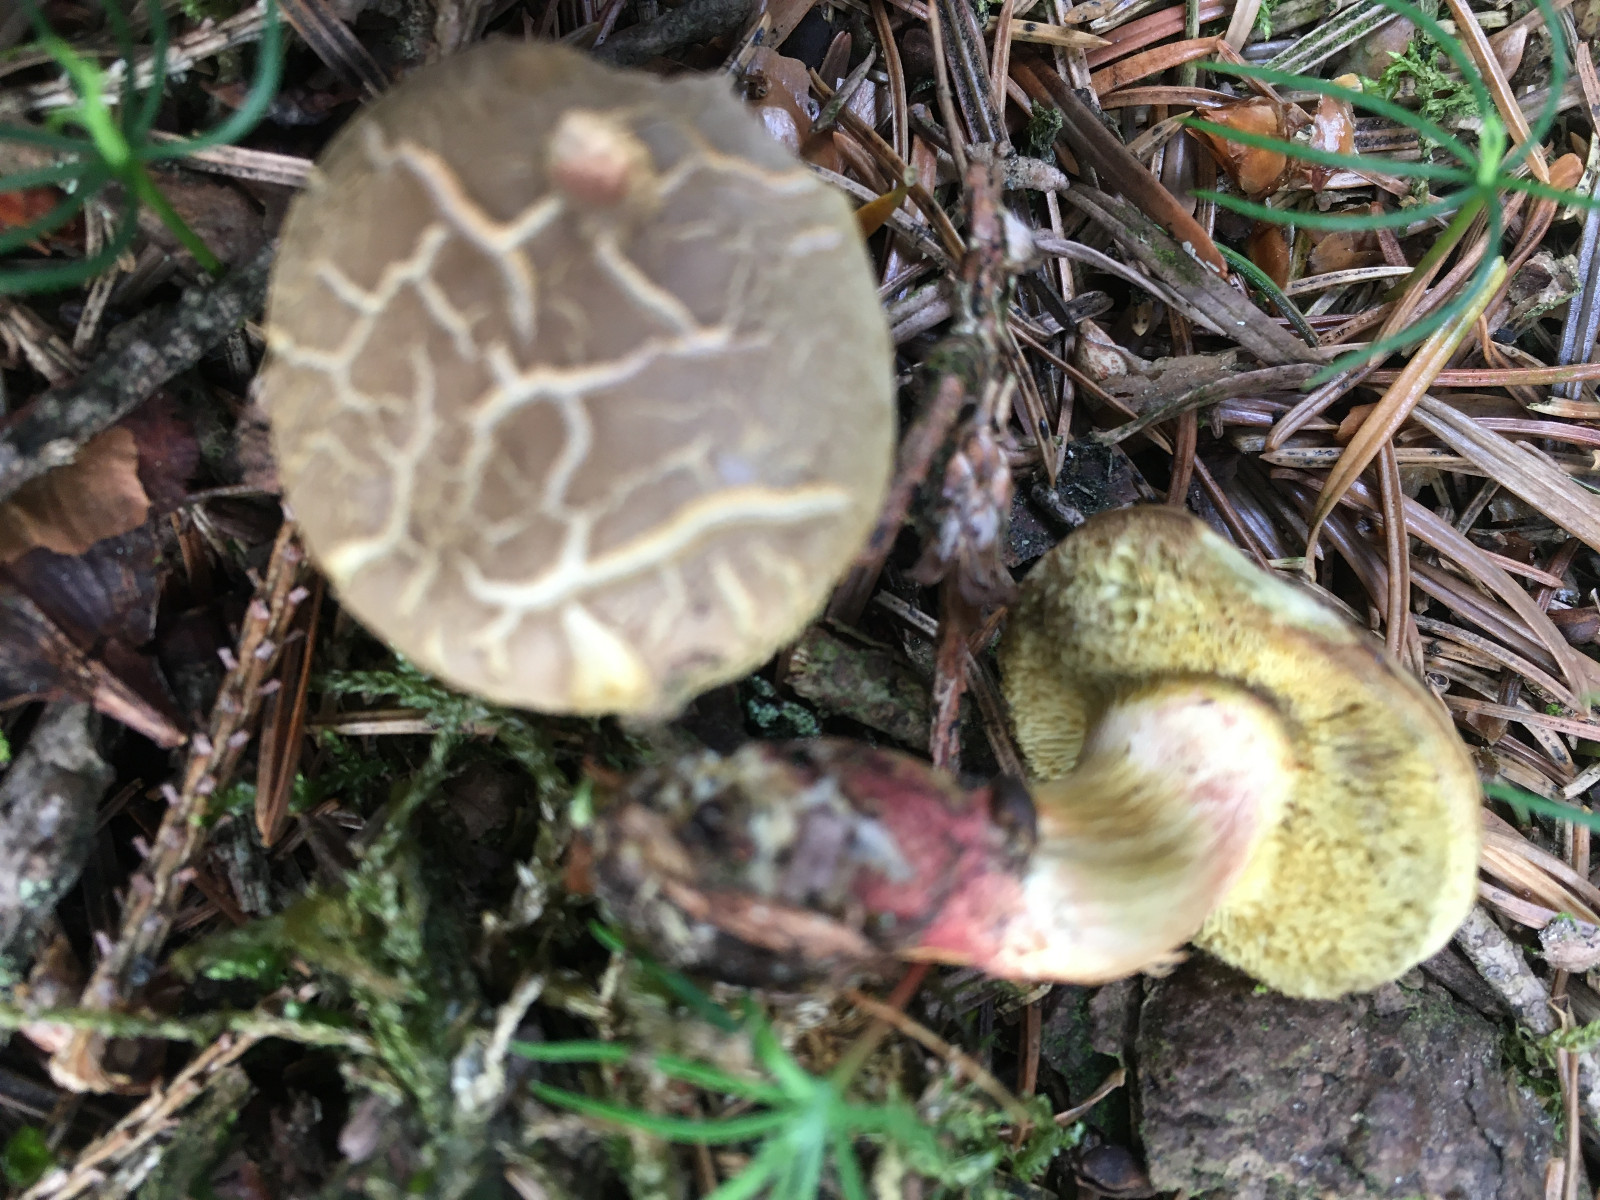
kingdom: Fungi
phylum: Basidiomycota
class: Agaricomycetes
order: Boletales
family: Boletaceae
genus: Xerocomellus
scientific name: Xerocomellus cisalpinus
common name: finsprukken rørhat
